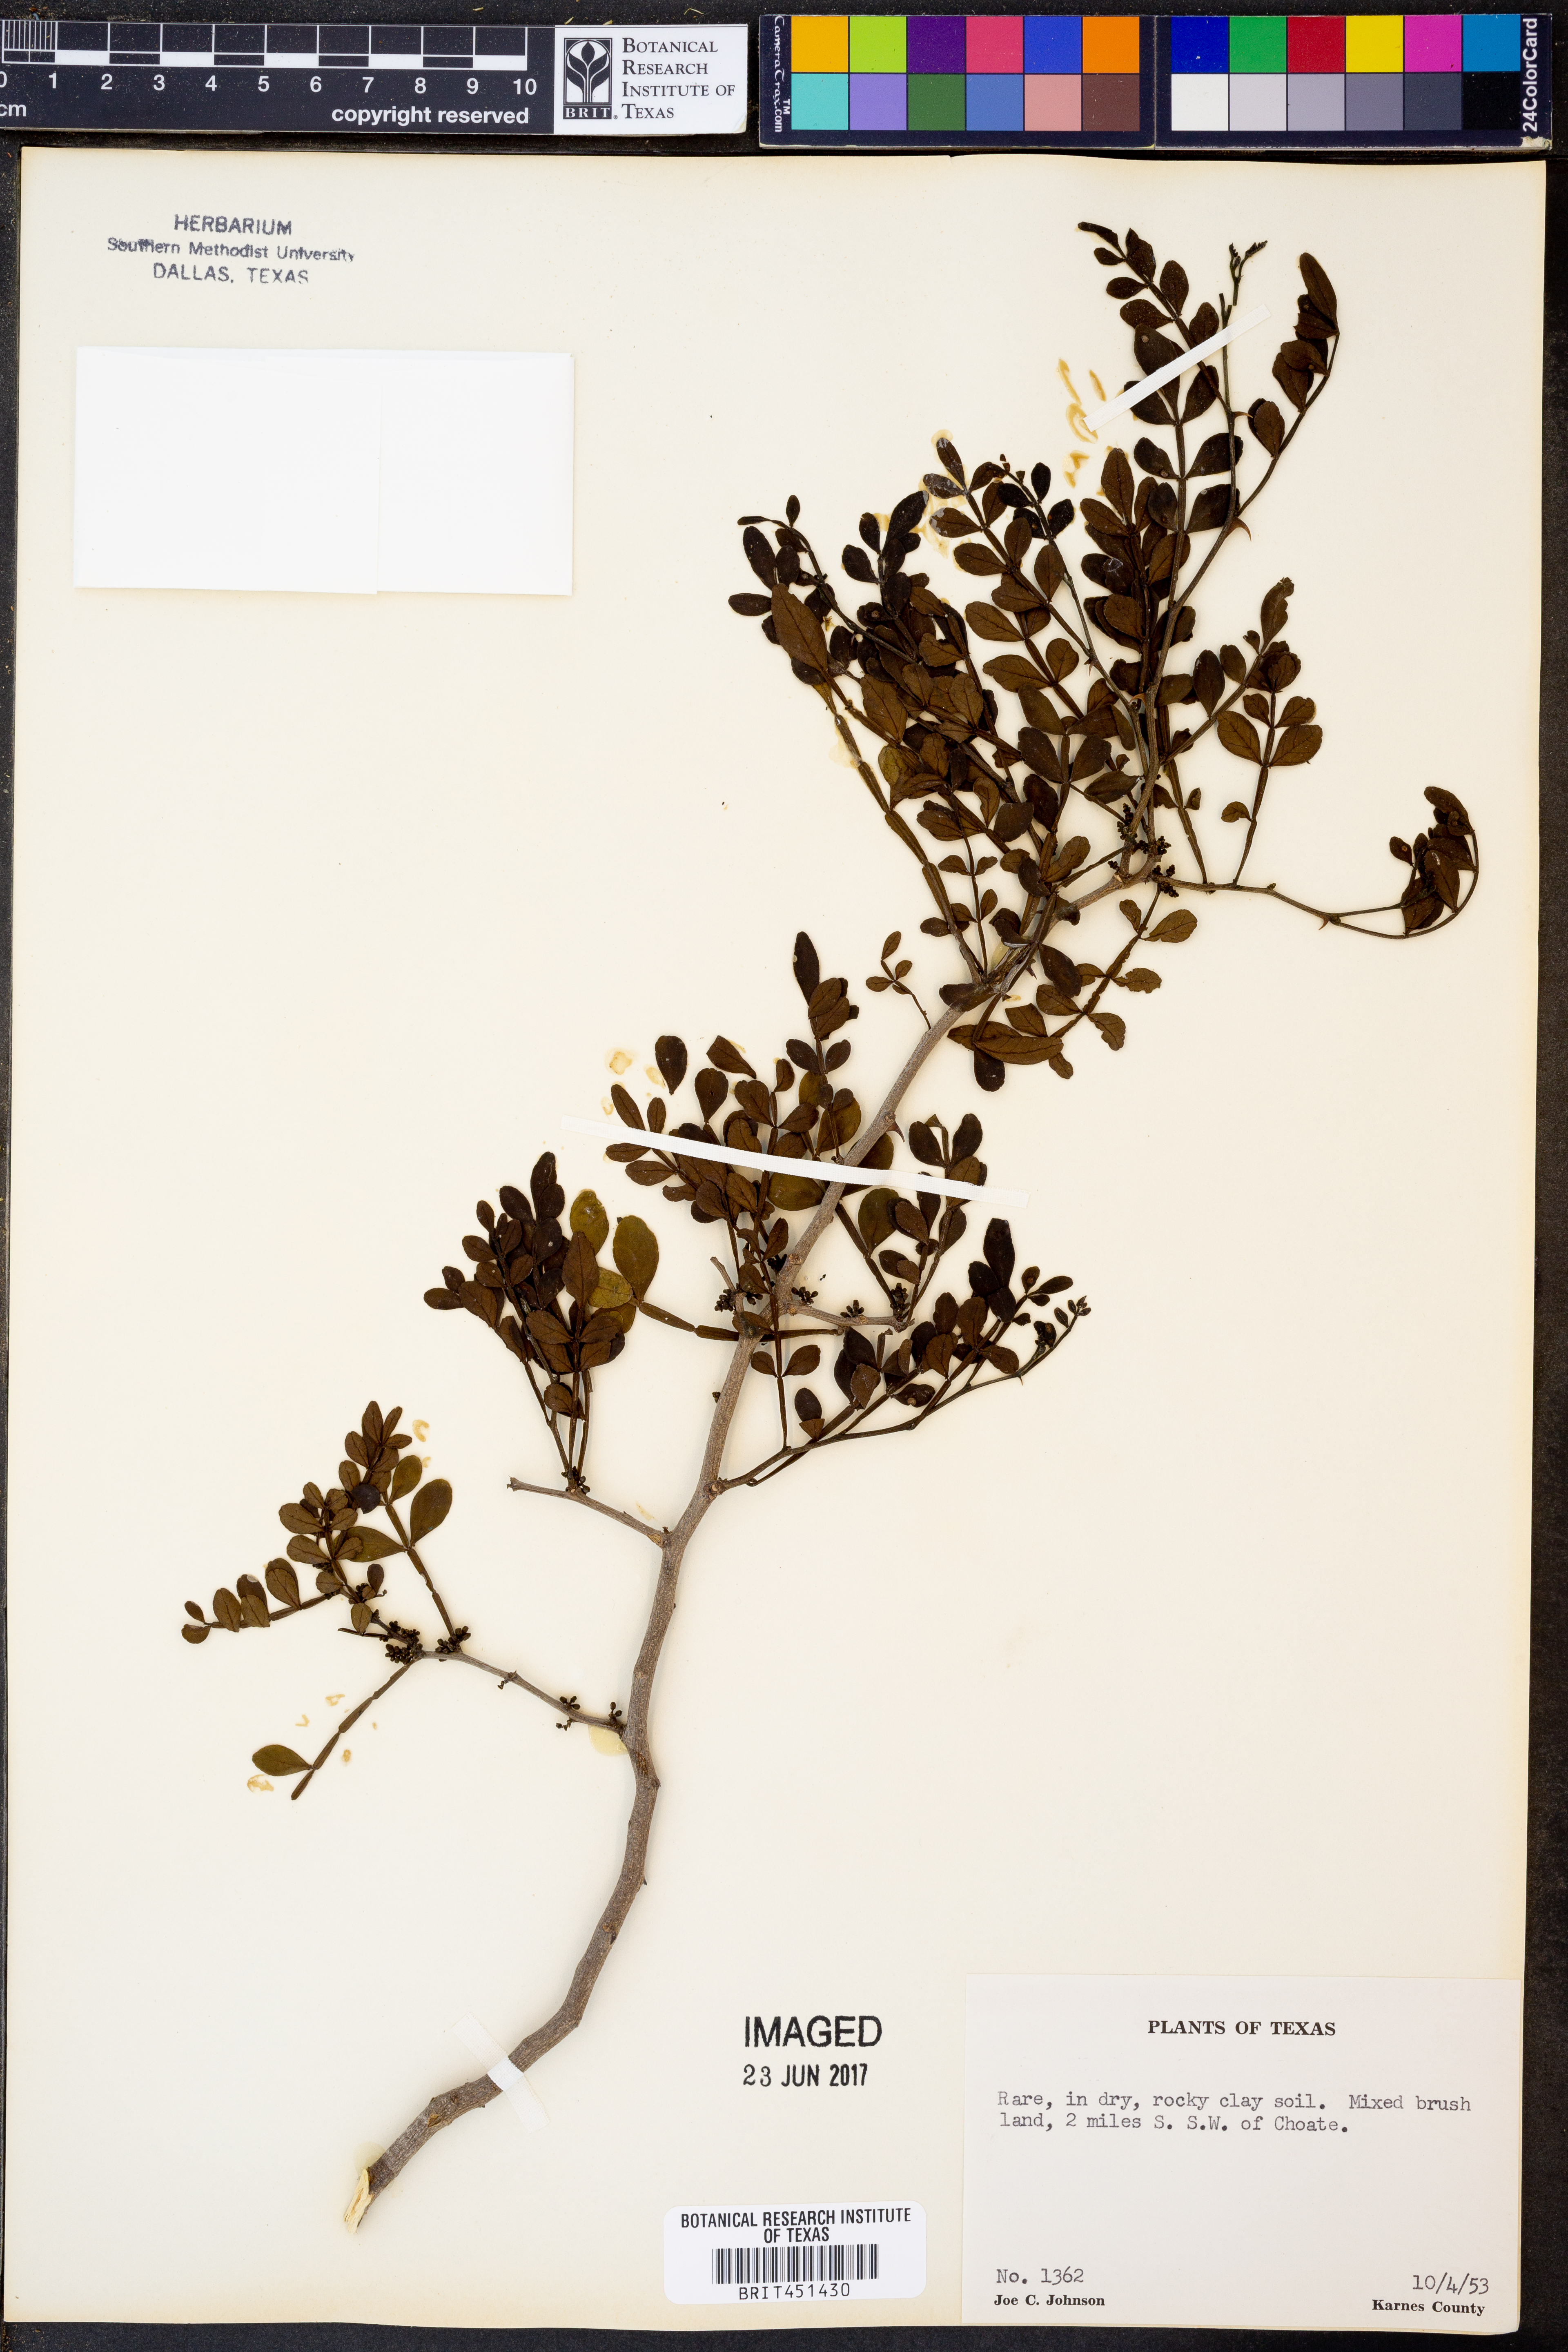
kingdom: Plantae
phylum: Tracheophyta
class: Magnoliopsida
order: Sapindales
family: Rutaceae
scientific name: Rutaceae
